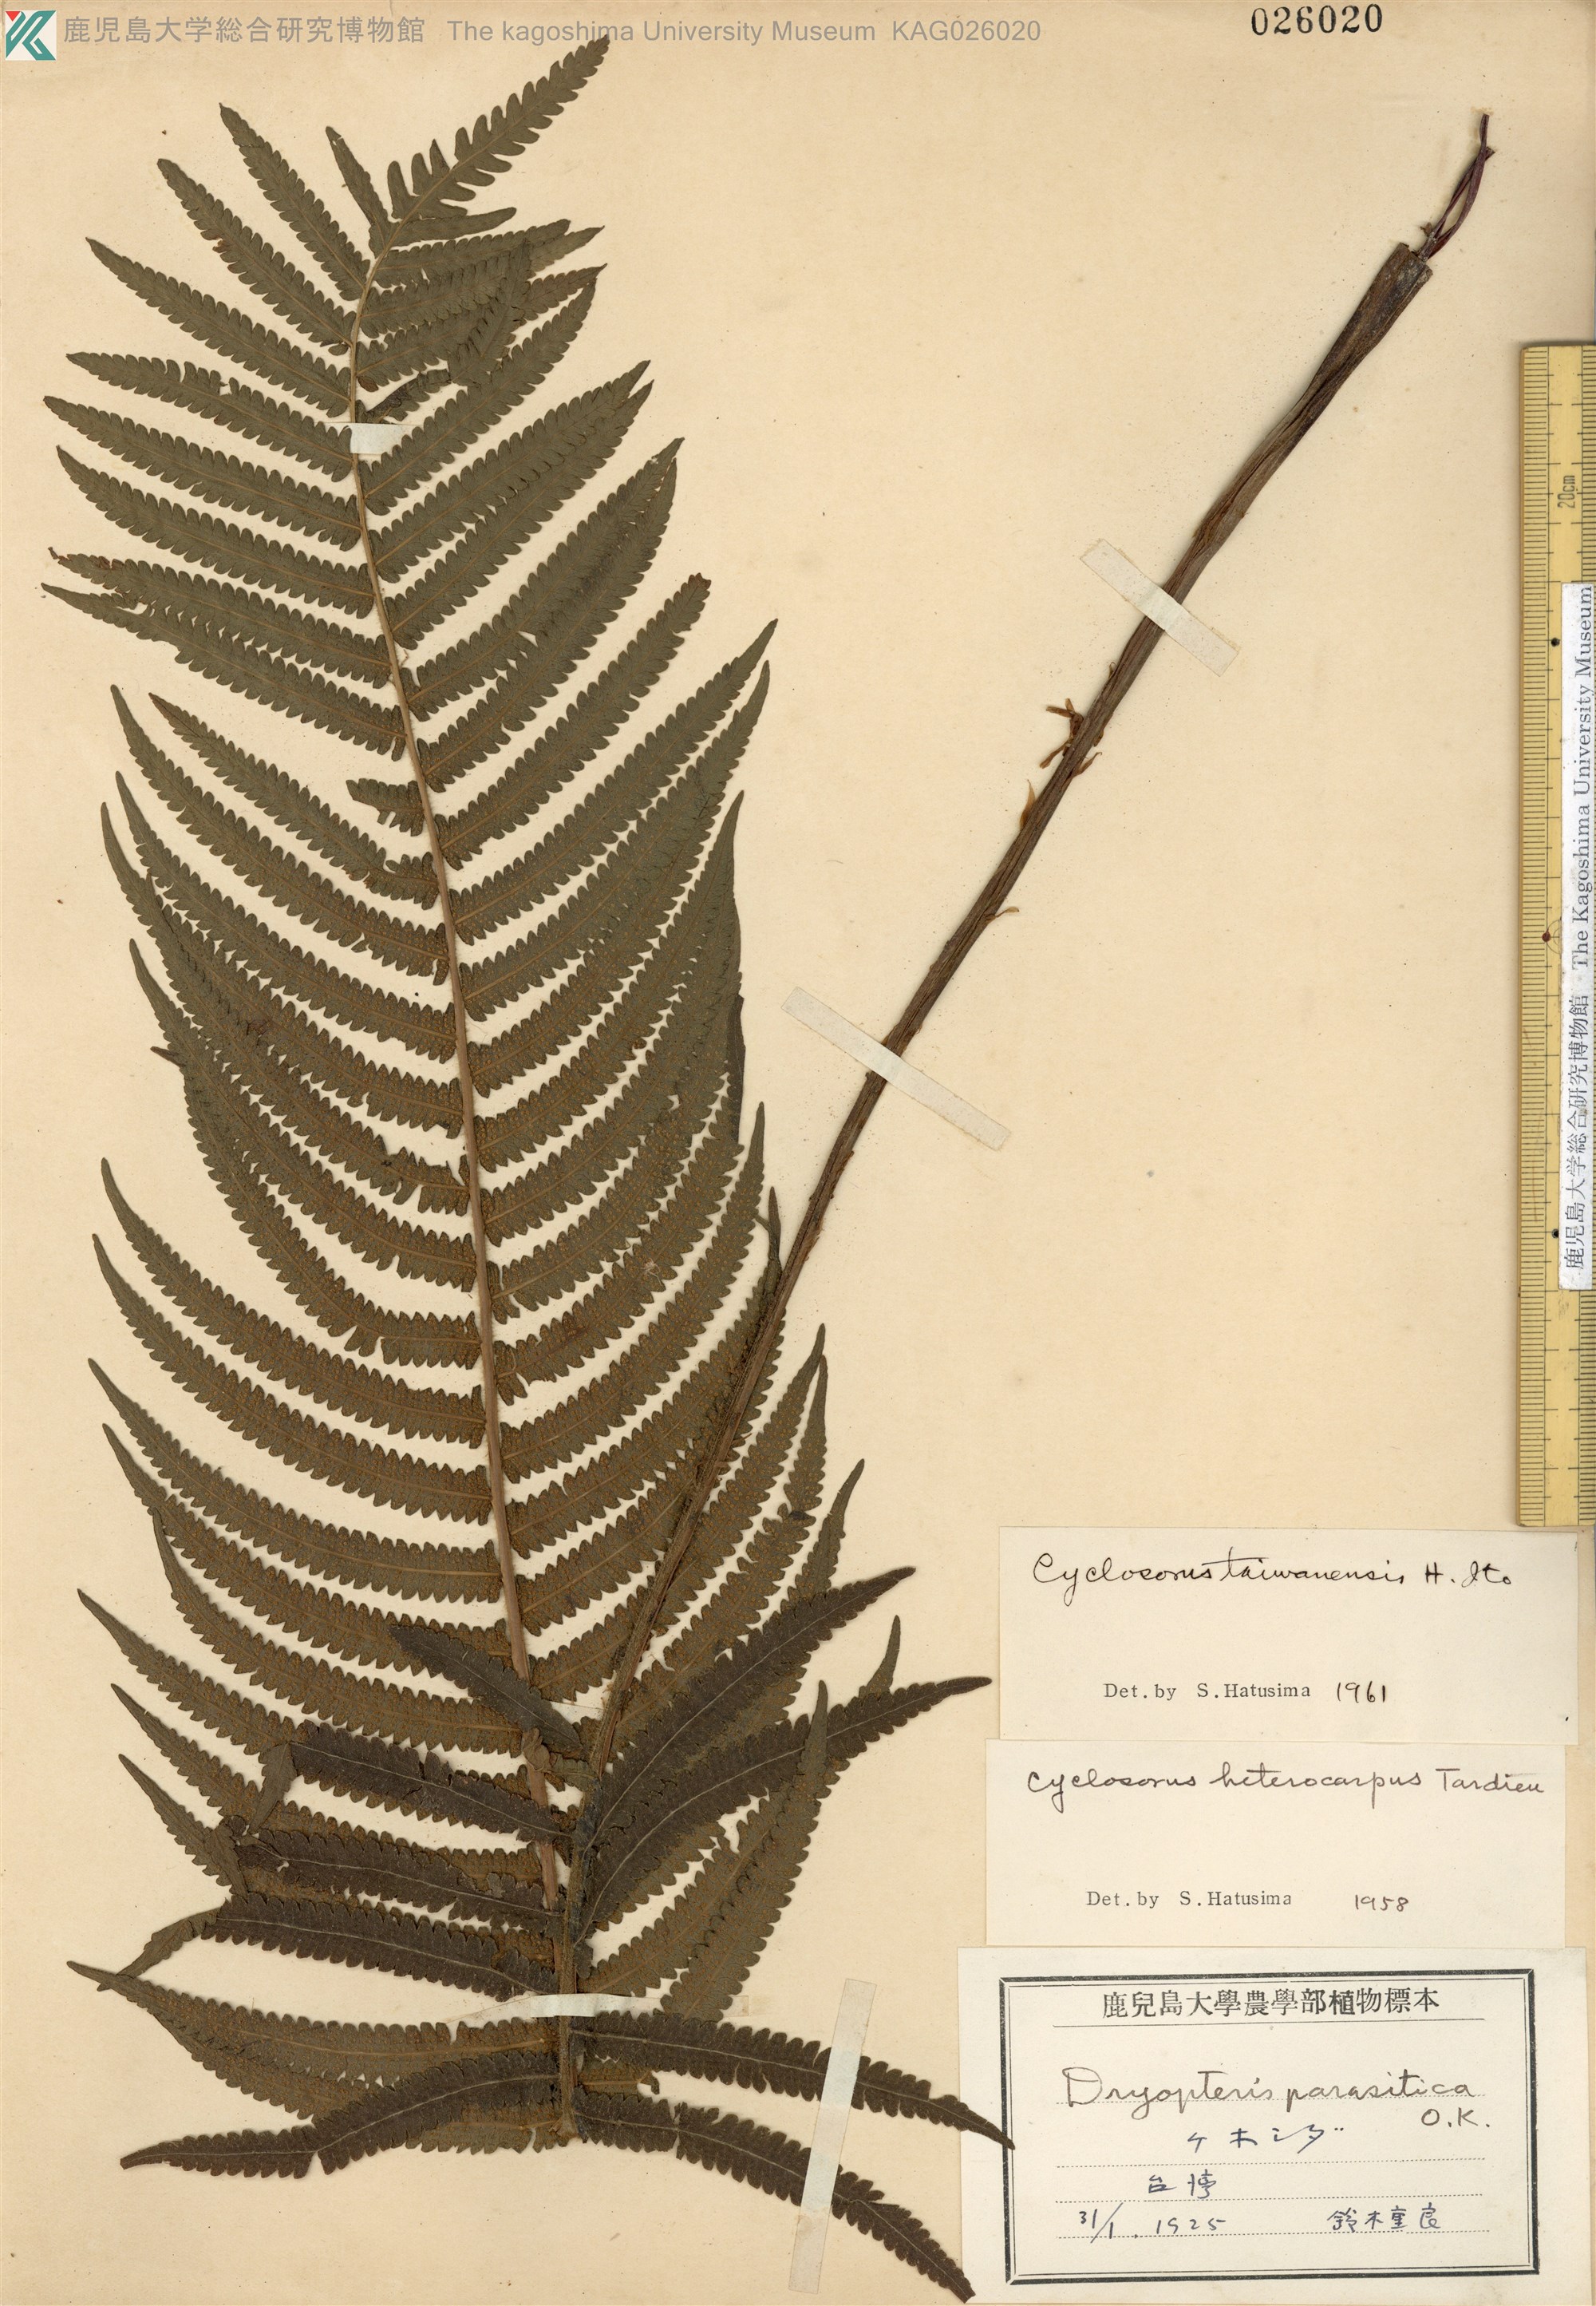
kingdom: Plantae
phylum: Tracheophyta
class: Polypodiopsida
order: Polypodiales
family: Thelypteridaceae
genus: Sphaerostephanos
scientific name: Sphaerostephanos taiwanensis
